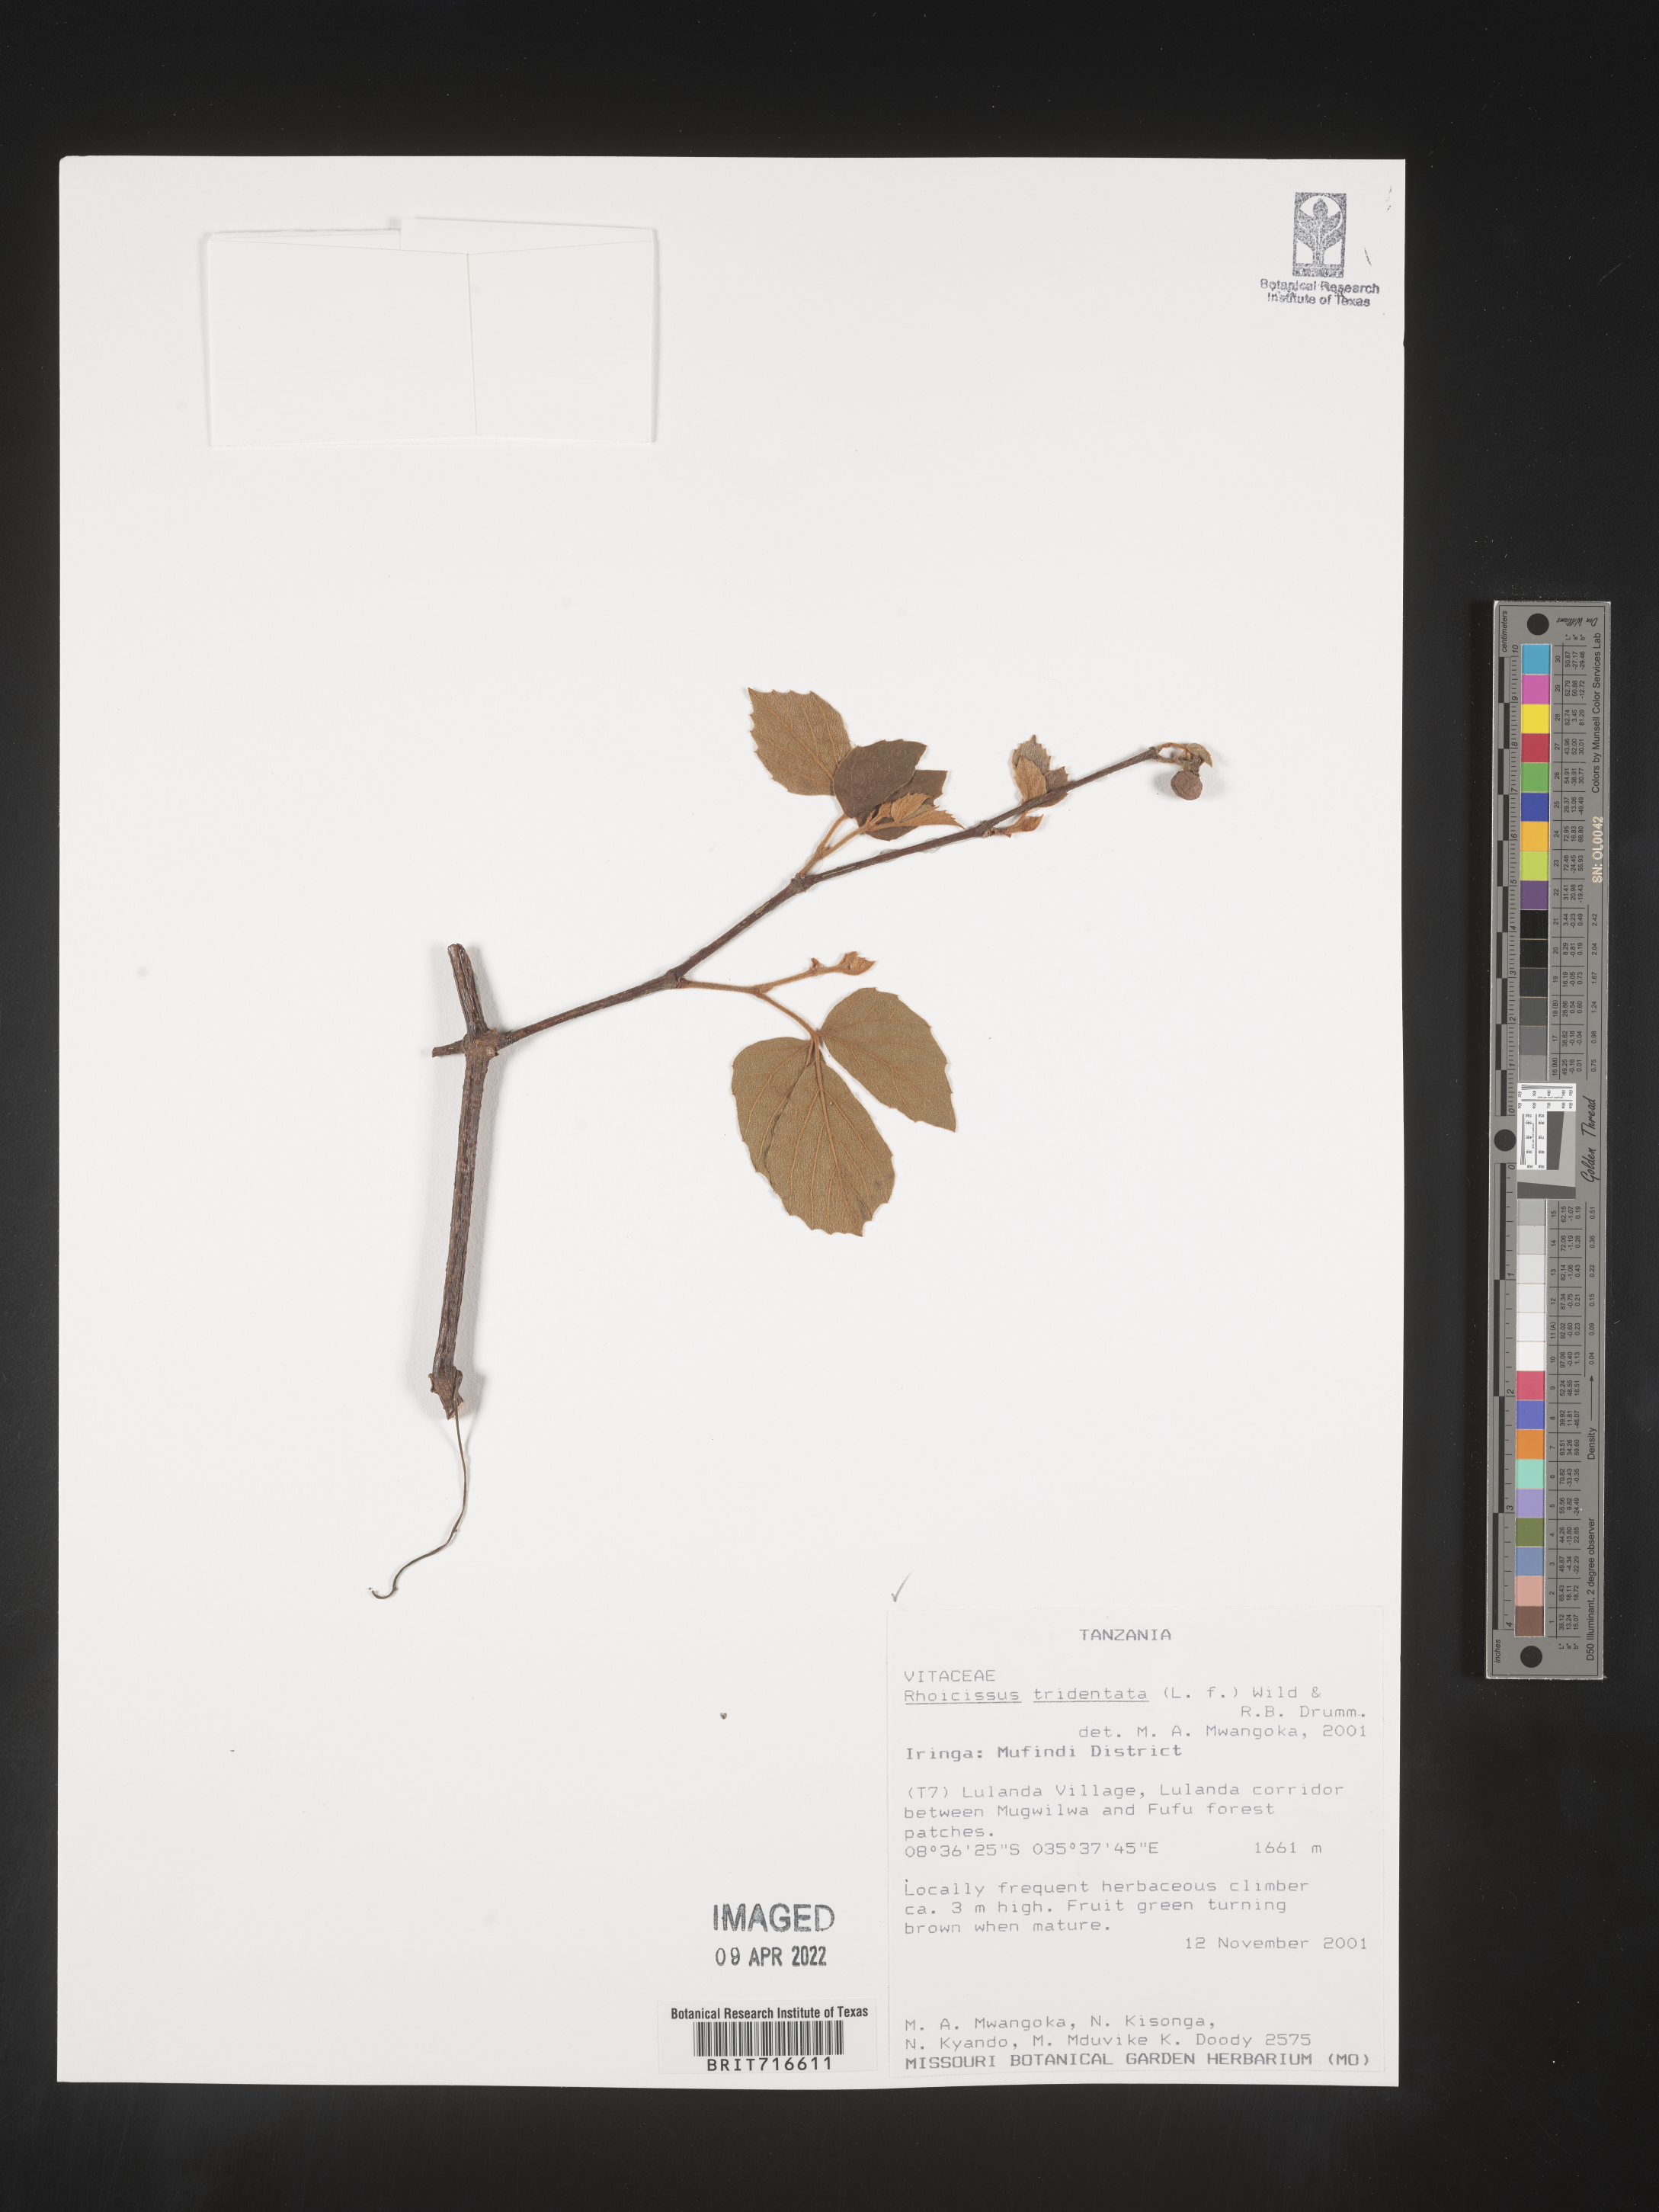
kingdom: Plantae
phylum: Tracheophyta
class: Magnoliopsida
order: Vitales
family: Vitaceae
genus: Rhoicissus
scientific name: Rhoicissus tridentata
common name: Common forest grape
